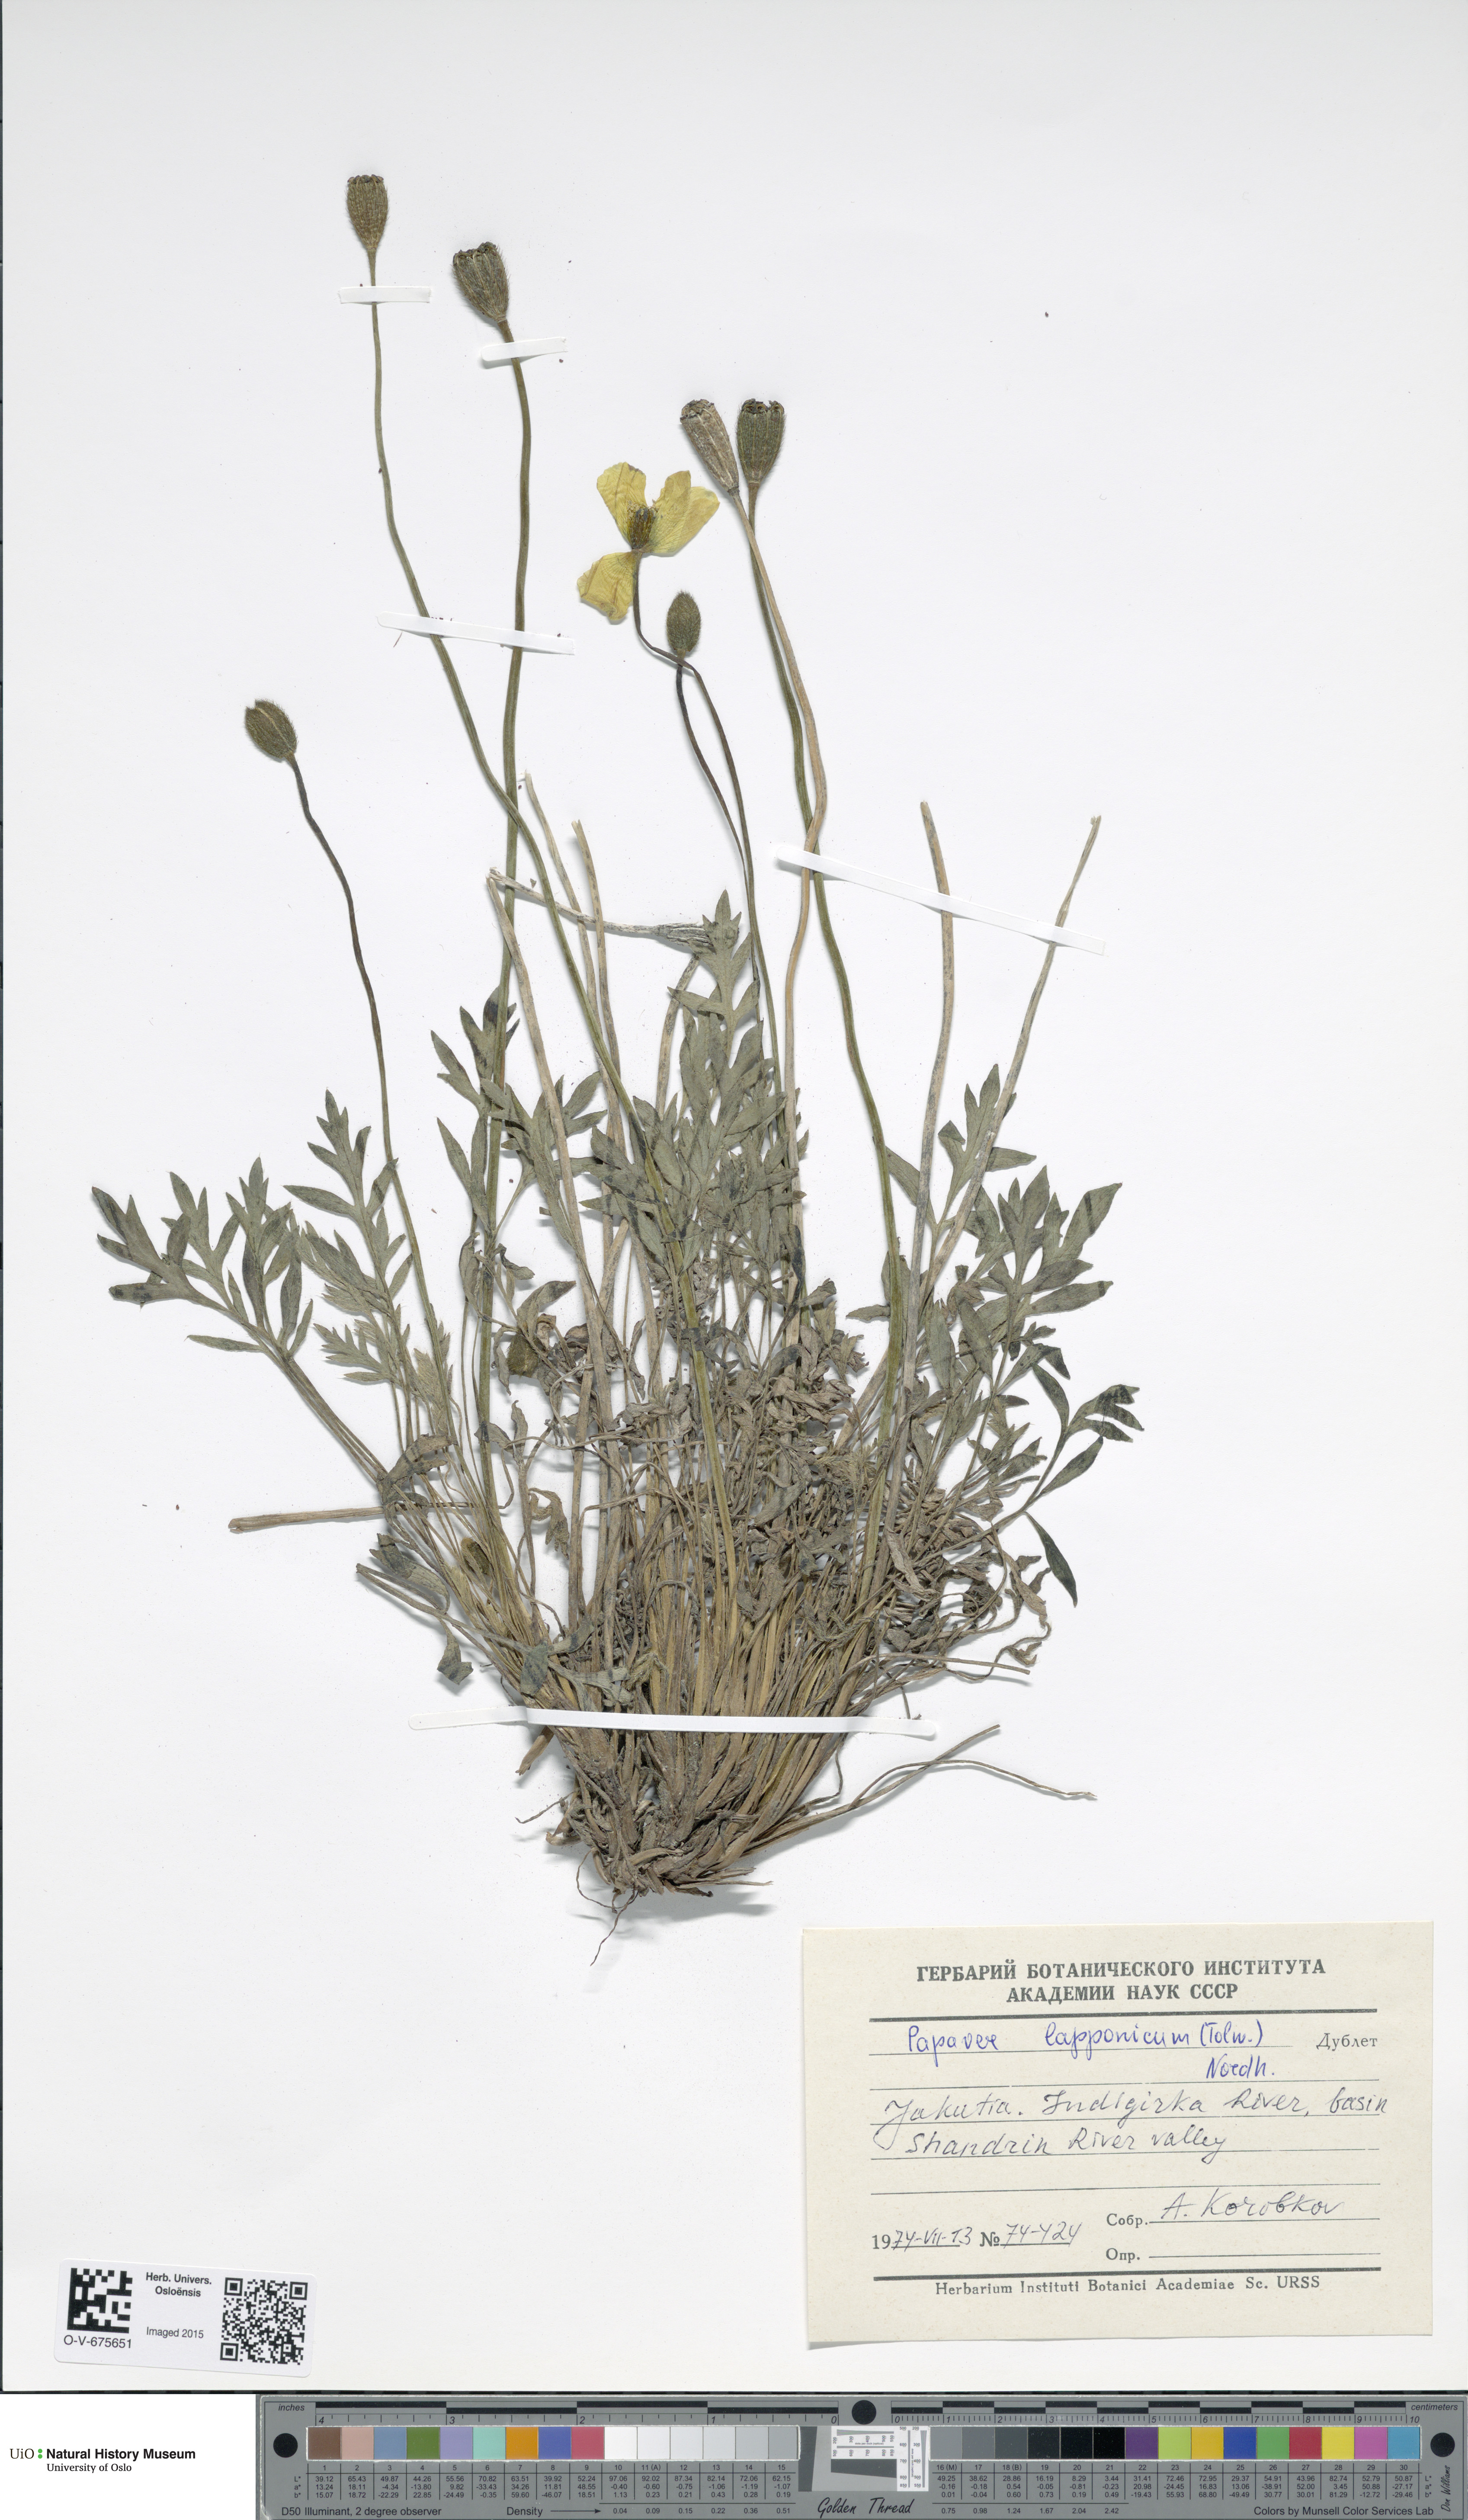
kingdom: Plantae
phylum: Tracheophyta
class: Magnoliopsida
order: Ranunculales
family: Papaveraceae
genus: Papaver
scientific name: Papaver lapponicum
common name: Lapland poppy
